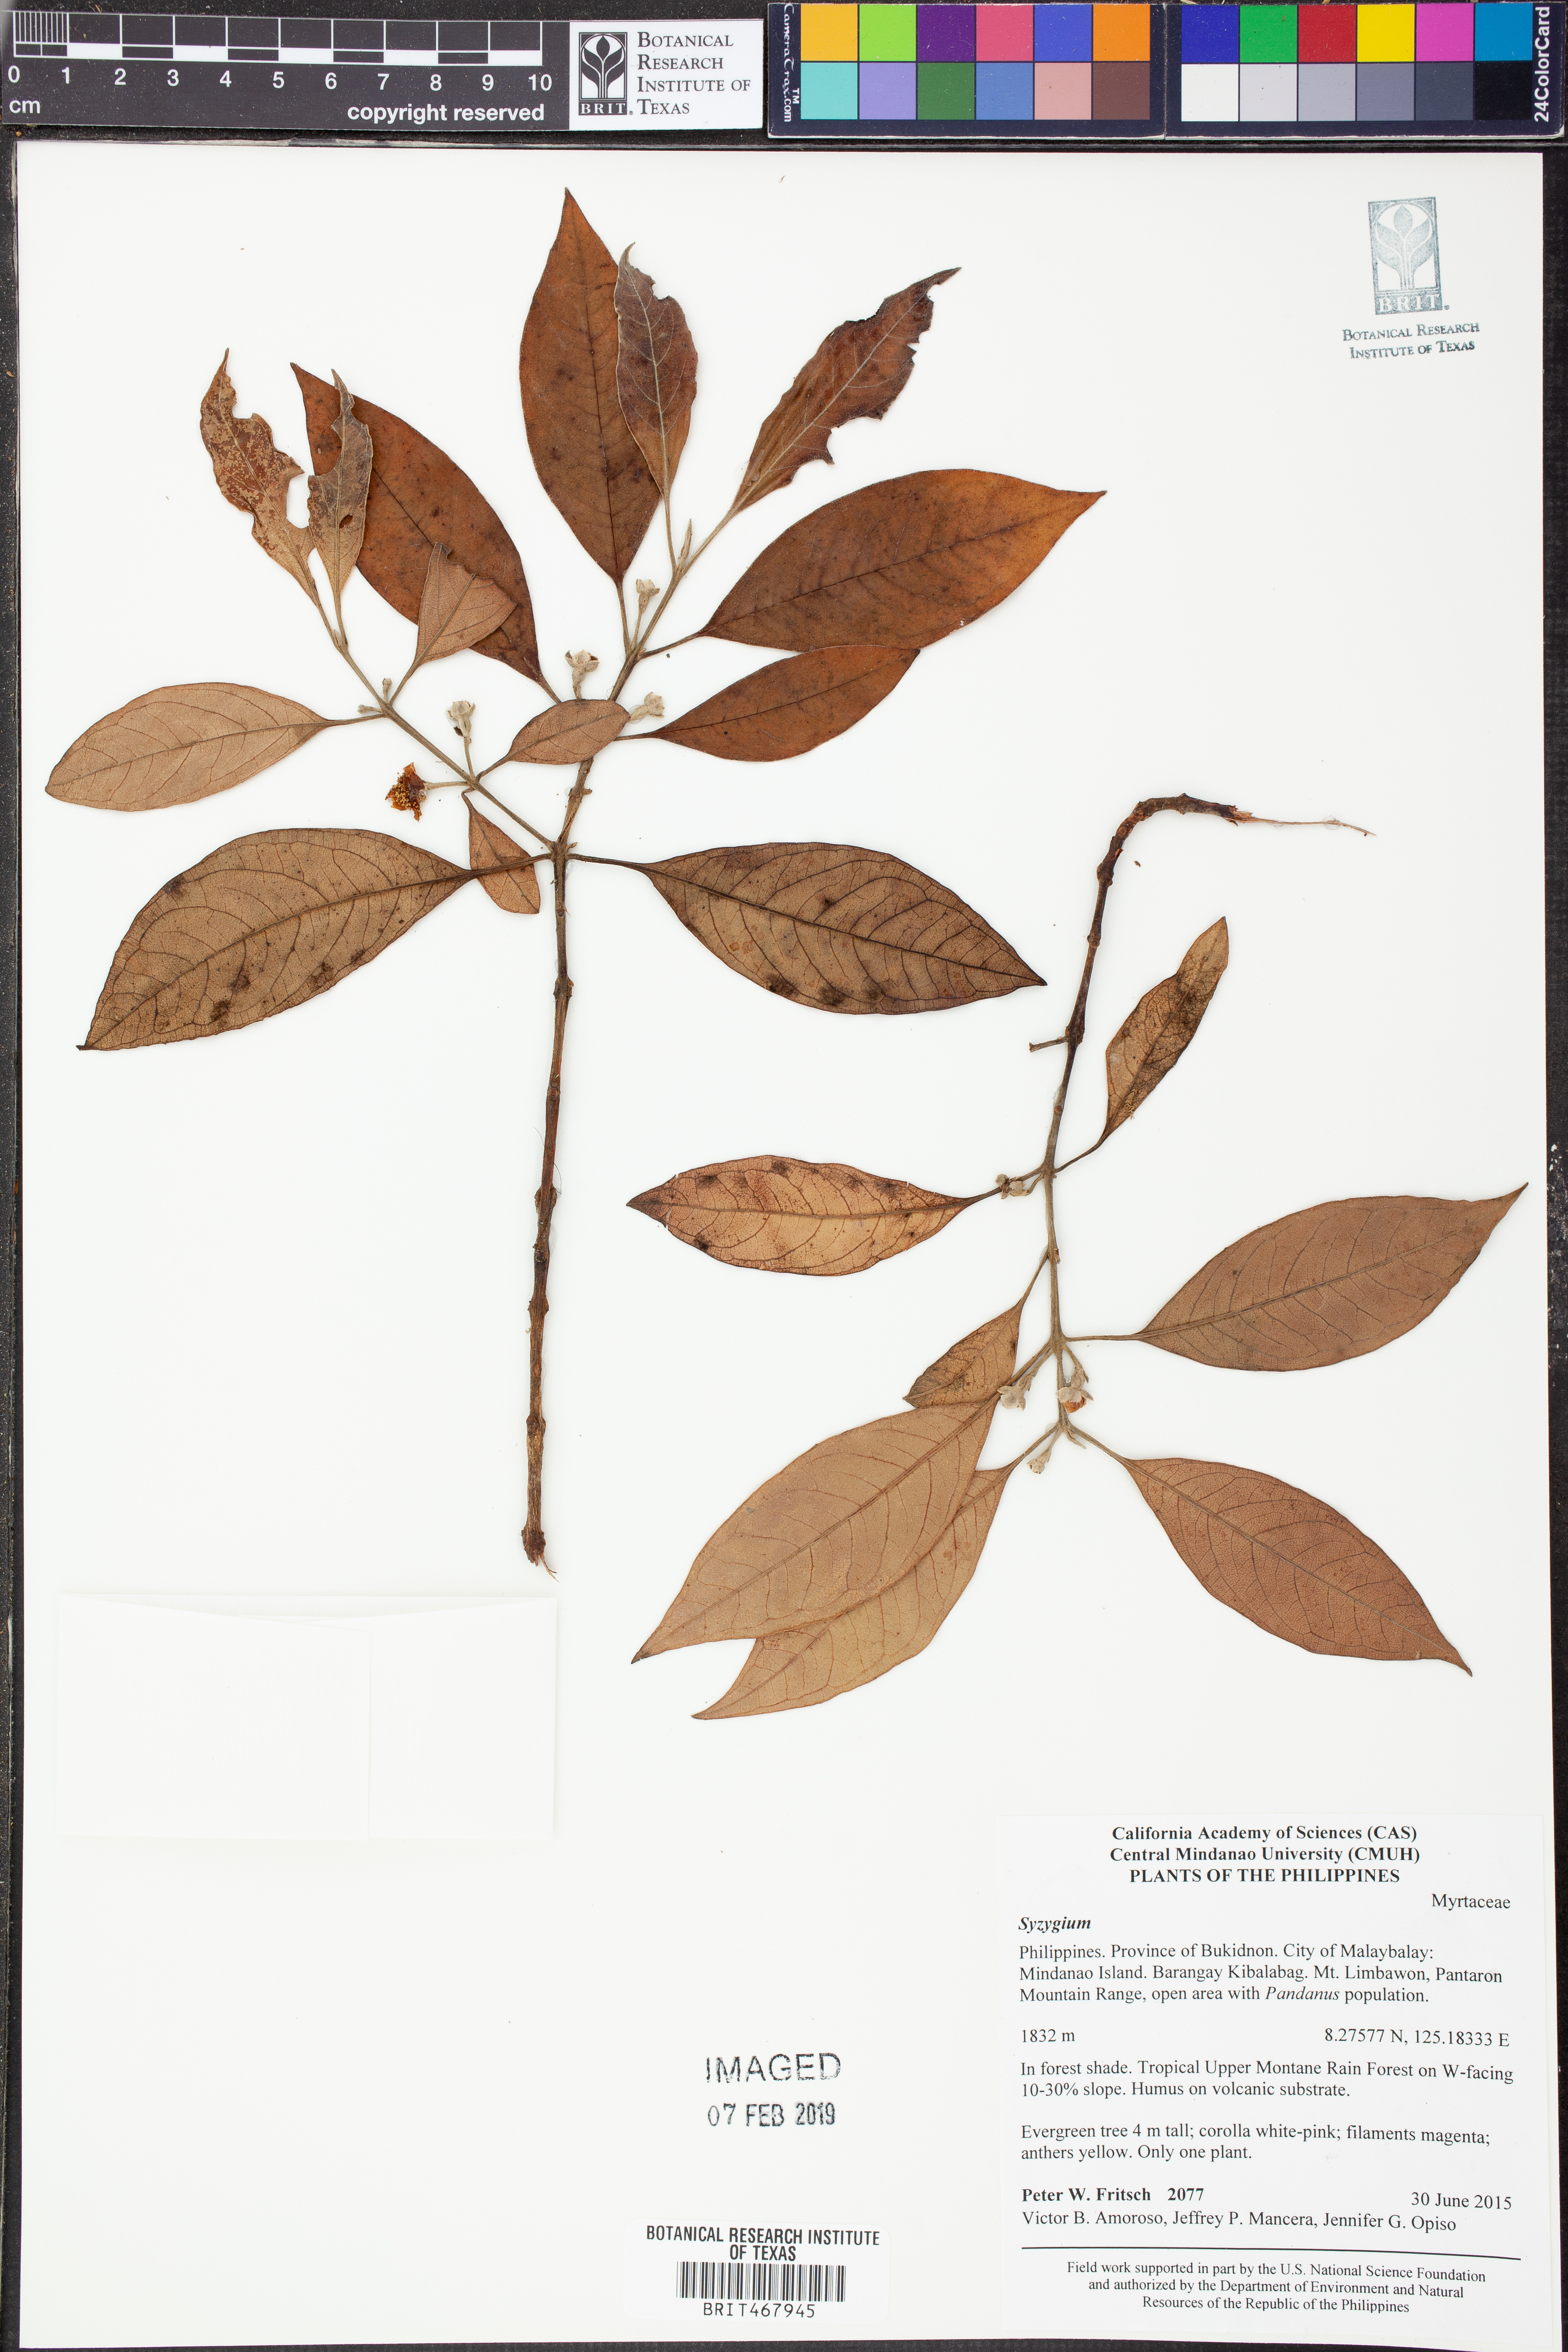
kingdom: Plantae
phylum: Tracheophyta
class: Magnoliopsida
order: Myrtales
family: Myrtaceae
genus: Syzygium
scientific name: Syzygium
